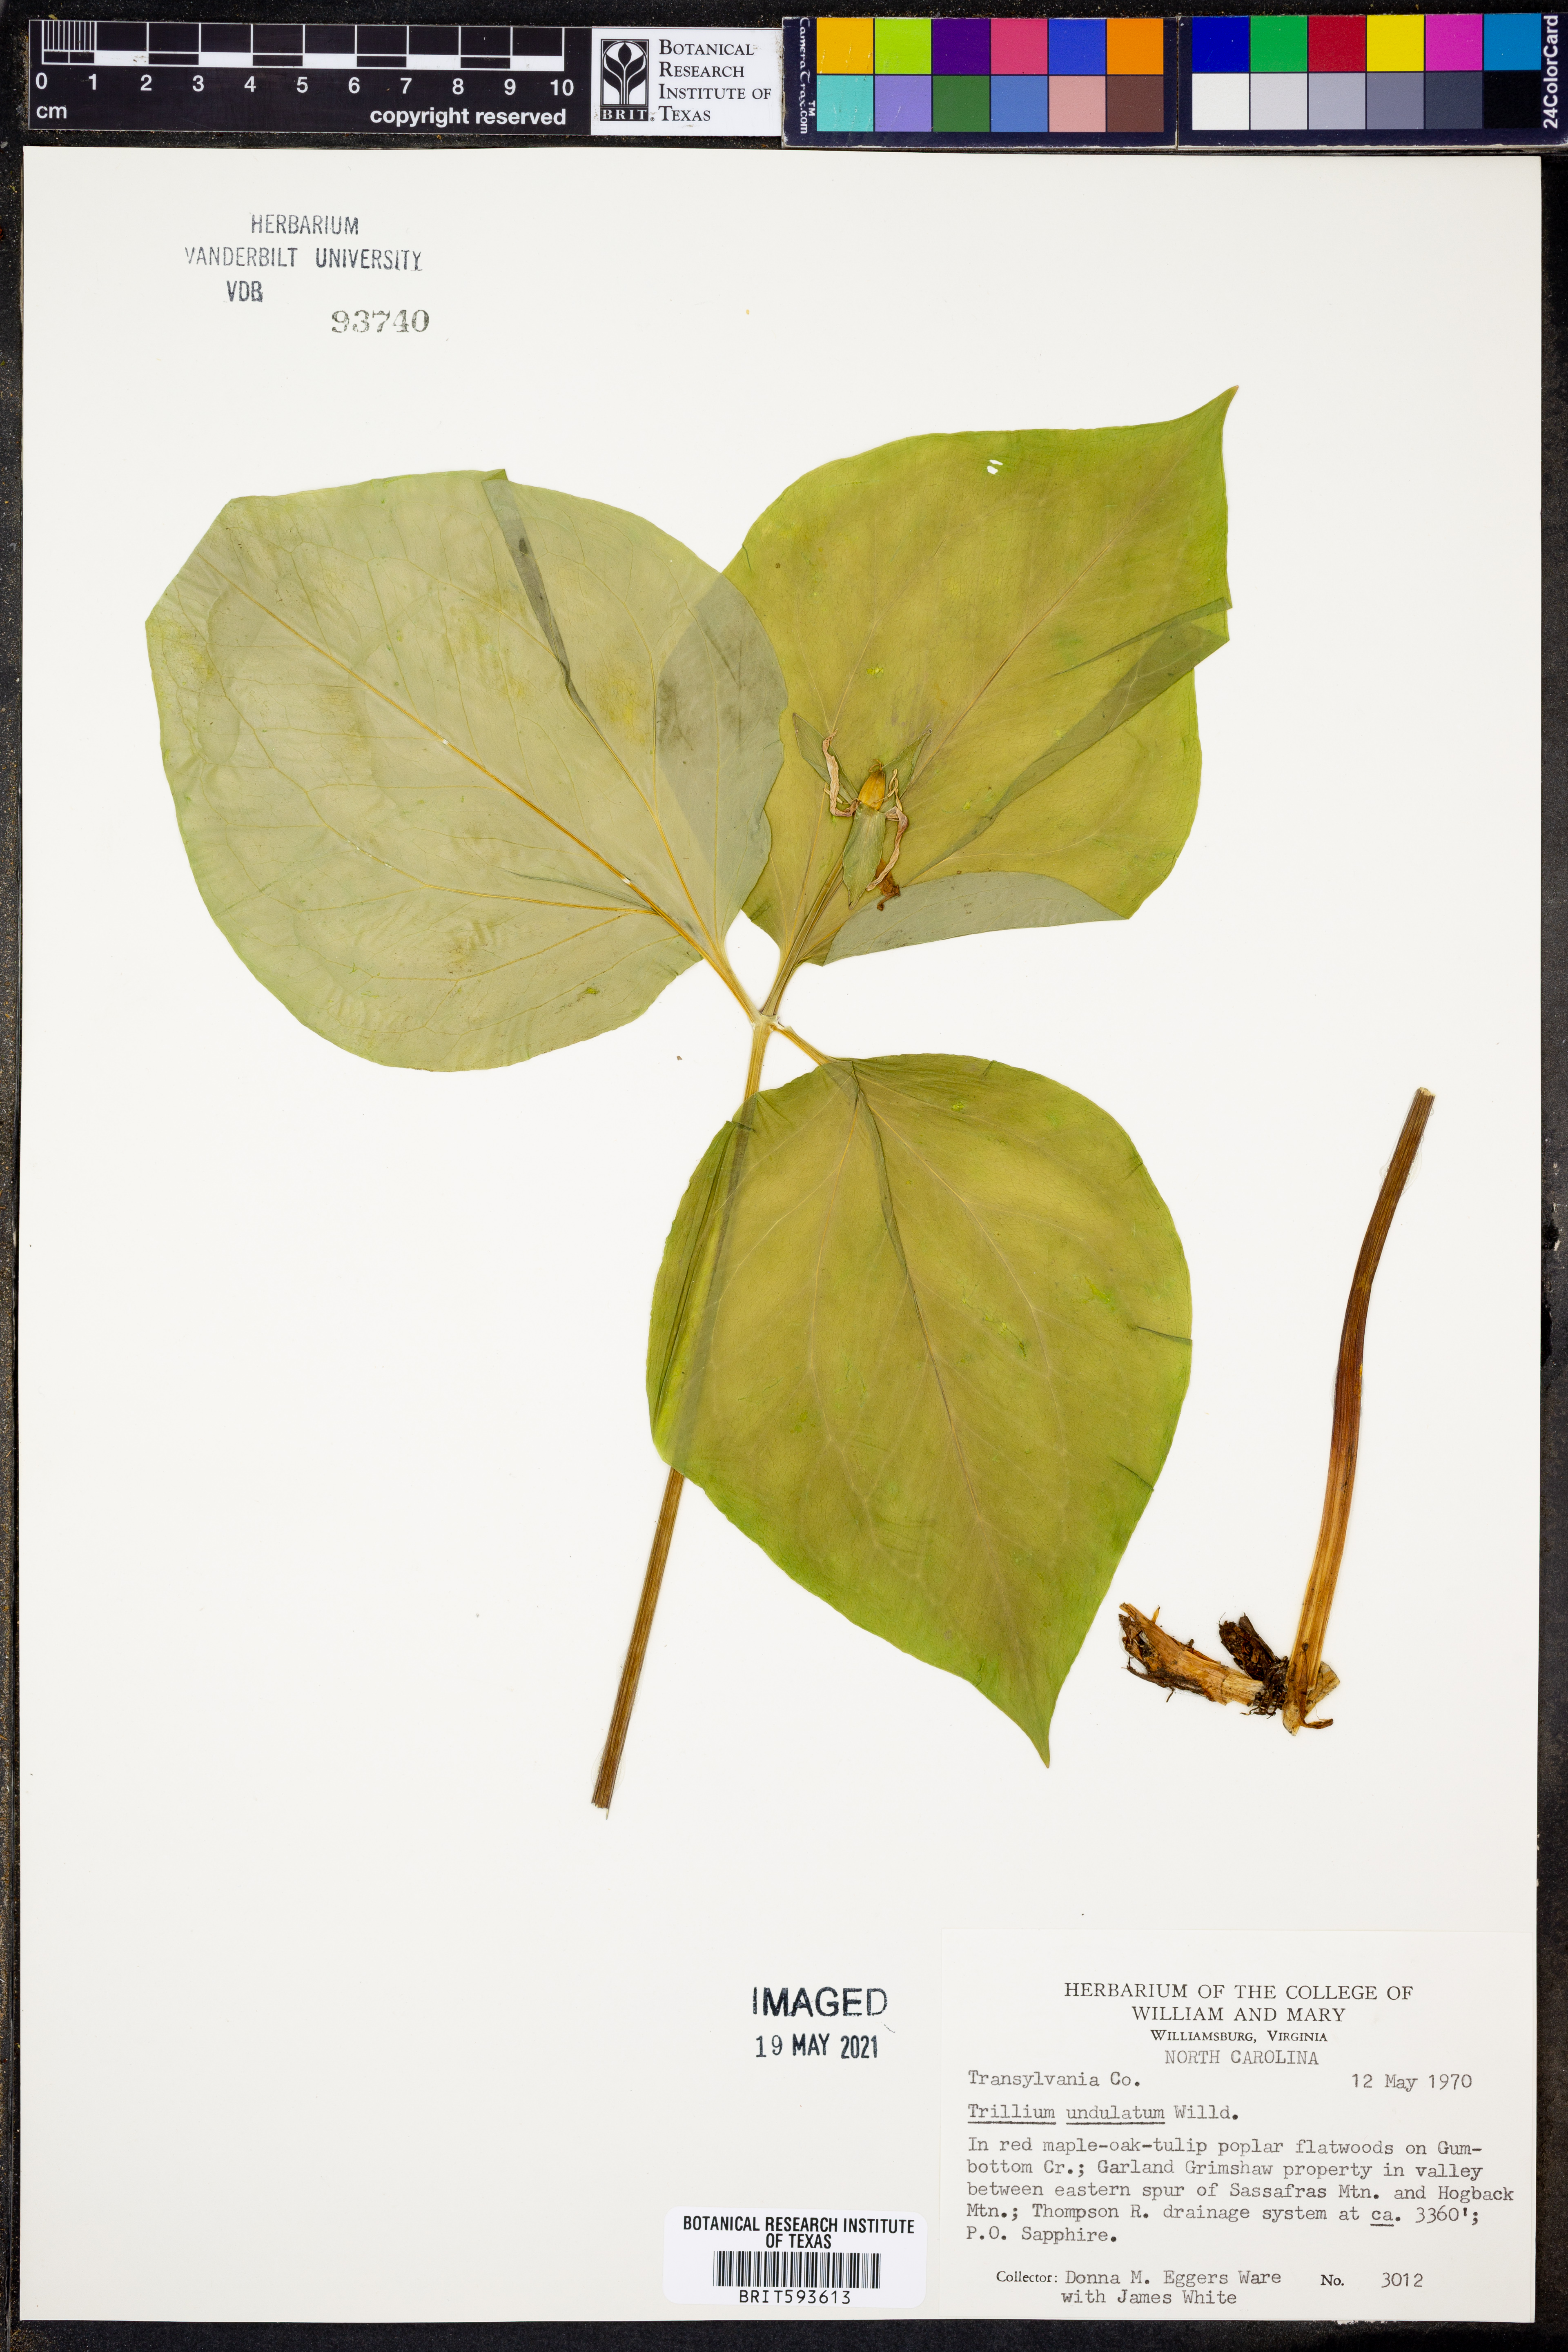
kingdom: Plantae
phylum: Tracheophyta
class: Liliopsida
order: Liliales
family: Melanthiaceae
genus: Trillium
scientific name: Trillium undulatum
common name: Paint trillium
